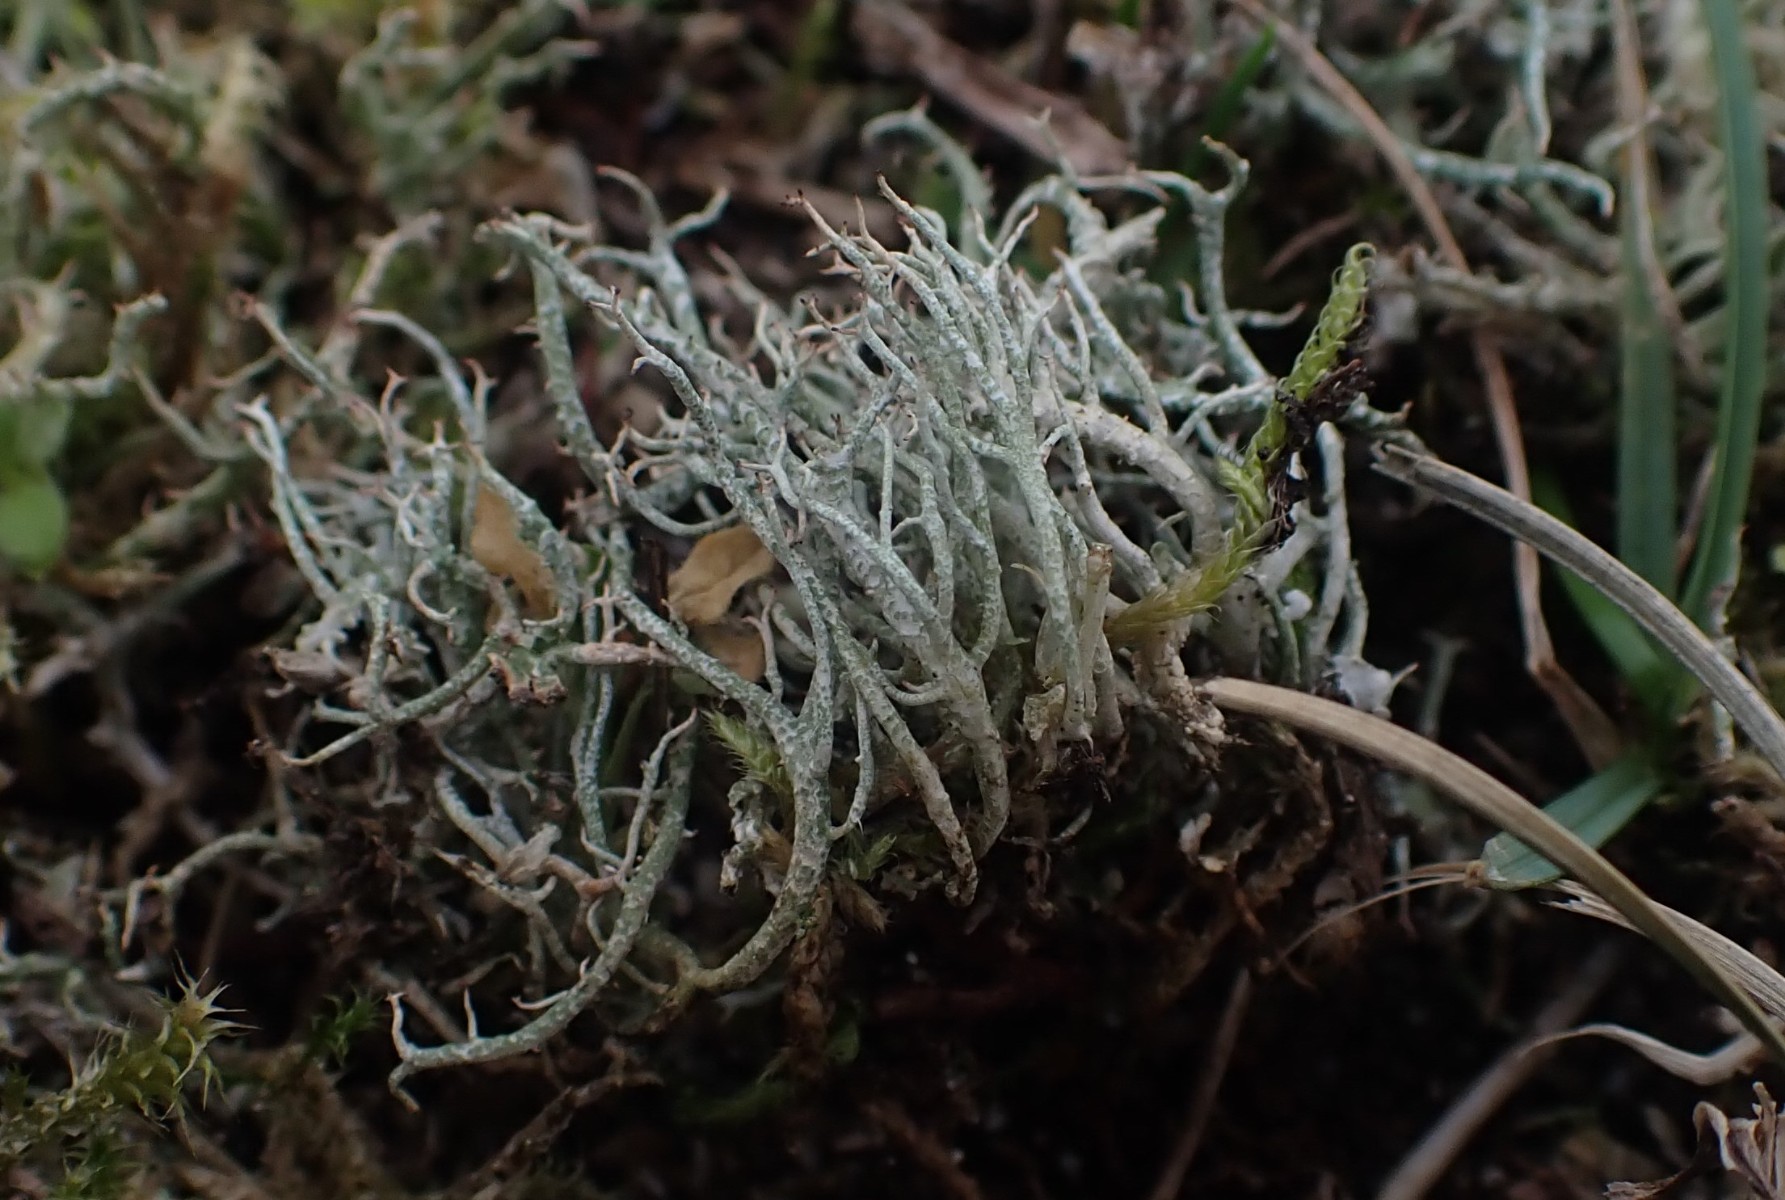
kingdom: Fungi
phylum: Ascomycota
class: Lecanoromycetes
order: Lecanorales
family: Cladoniaceae
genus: Cladonia
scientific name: Cladonia furcata
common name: kløftet bægerlav
